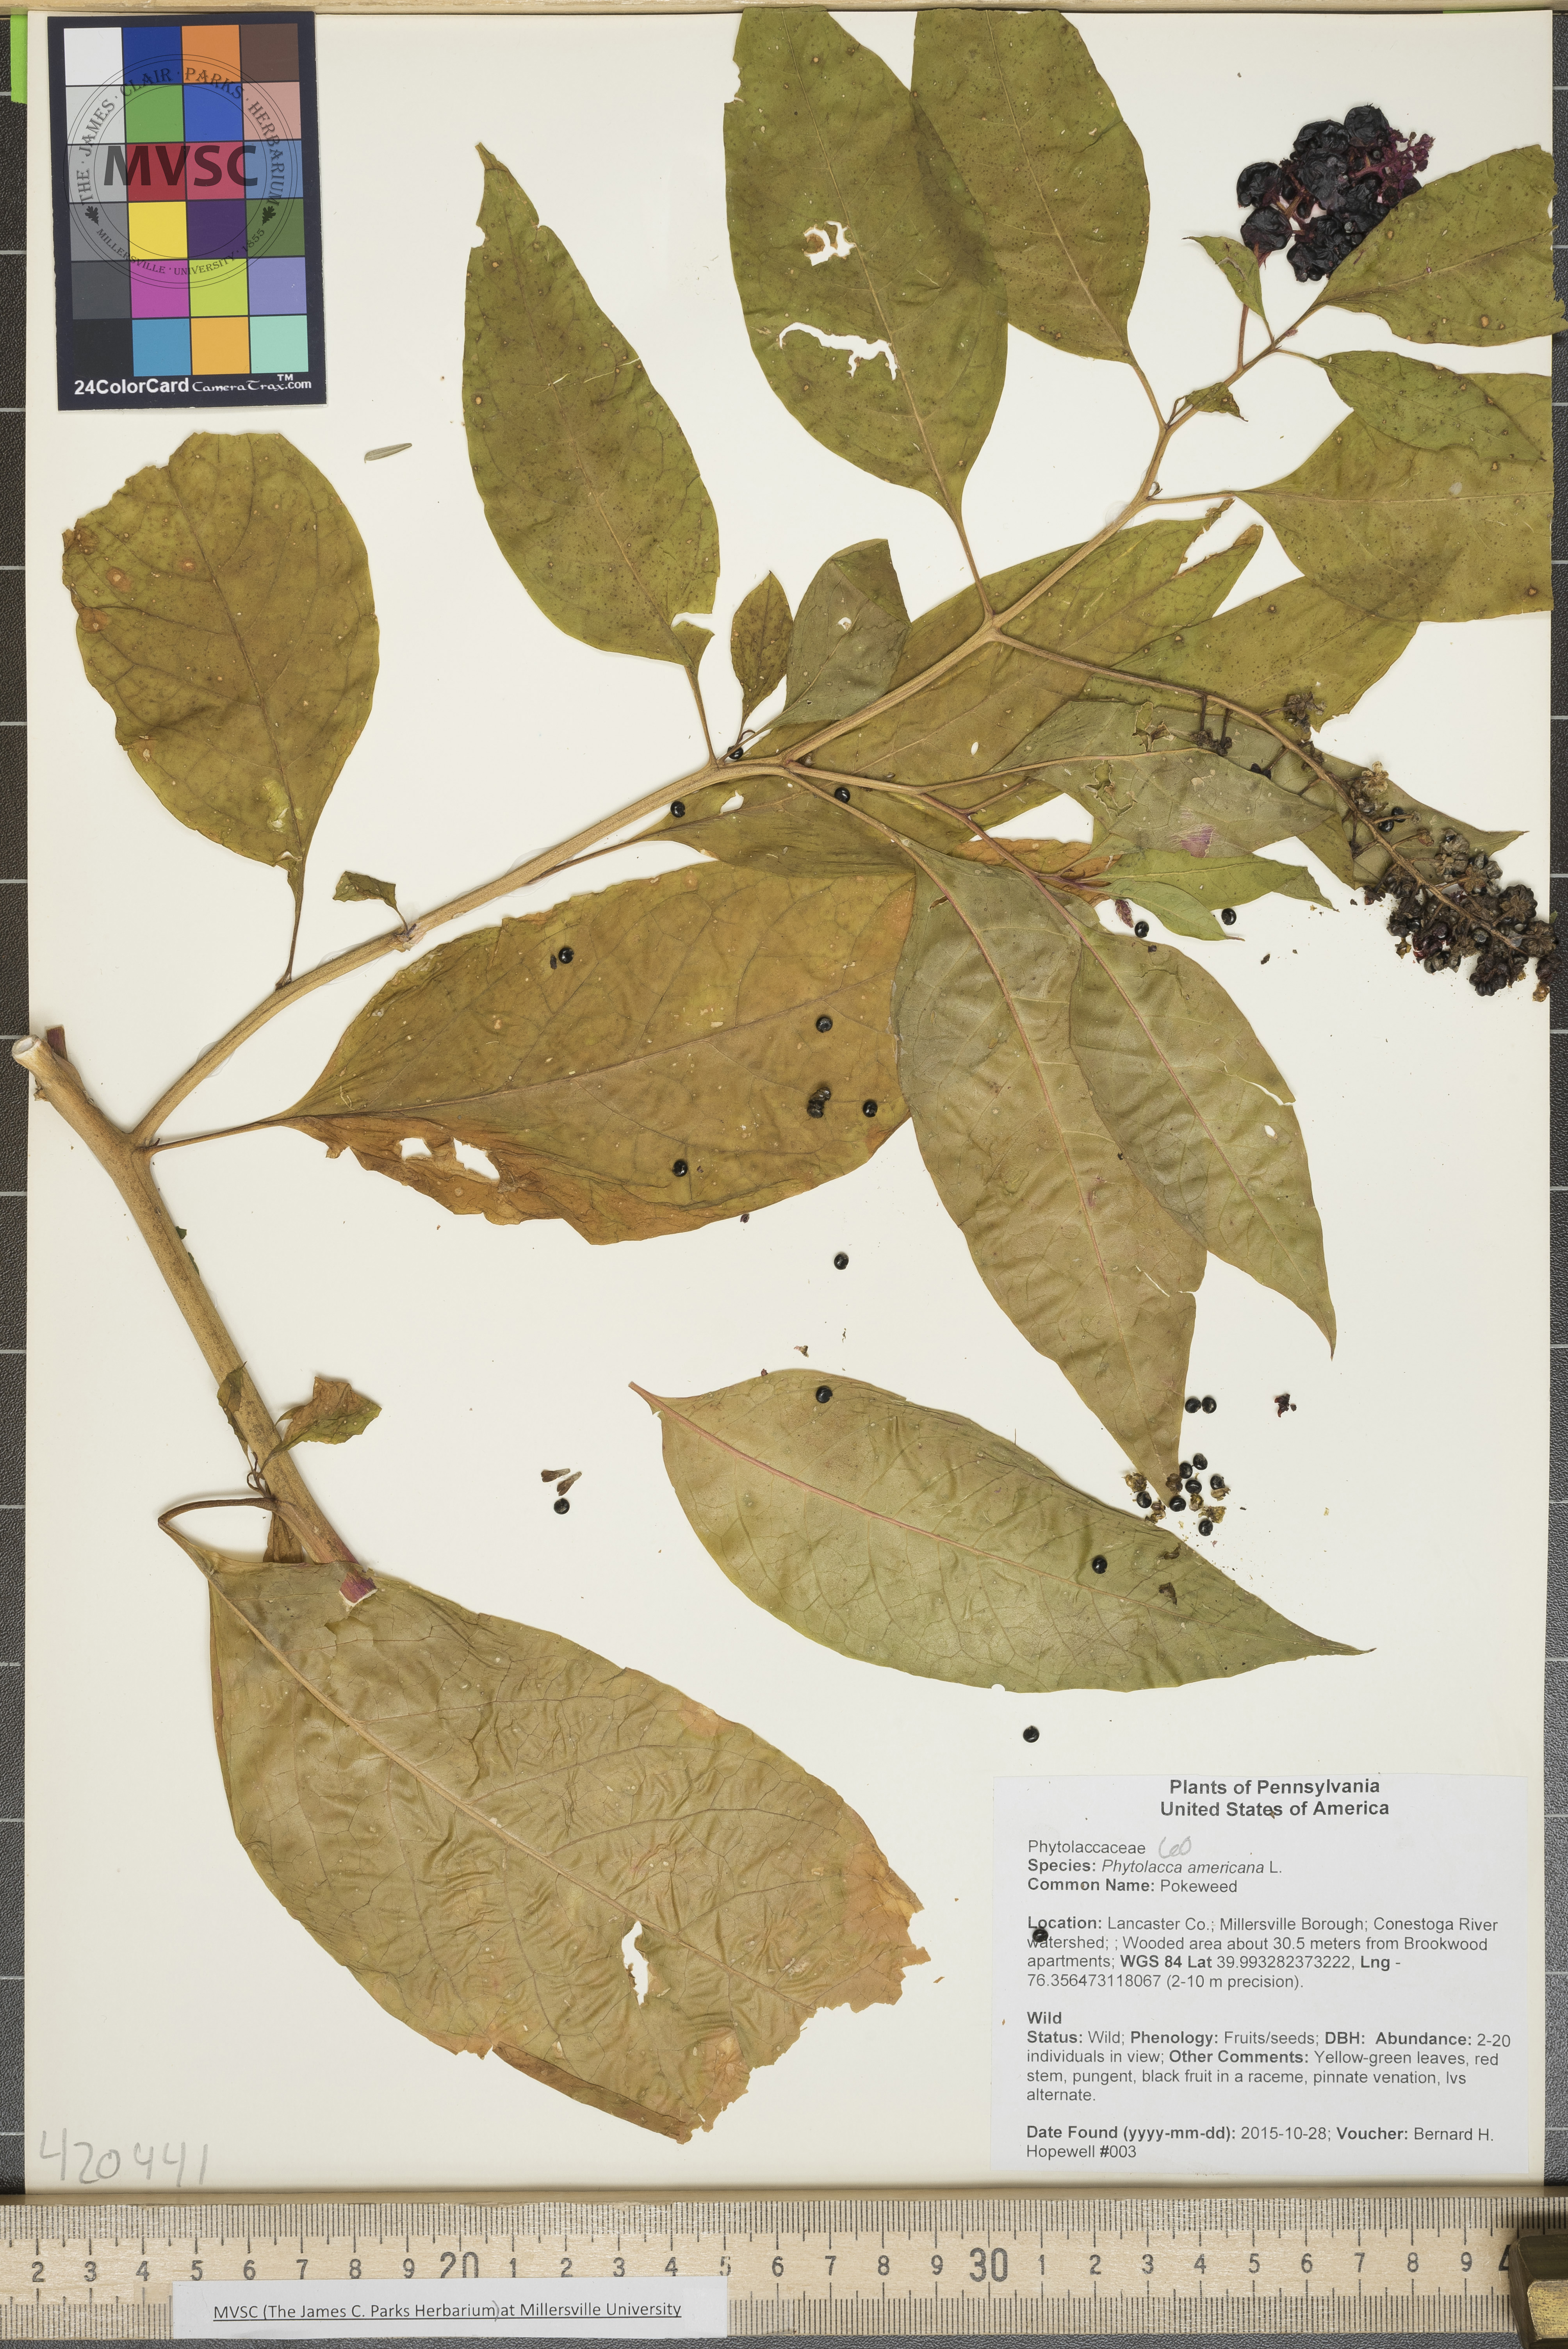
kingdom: Plantae
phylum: Tracheophyta
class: Magnoliopsida
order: Caryophyllales
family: Phytolaccaceae
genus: Phytolacca
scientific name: Phytolacca americana
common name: Pokeweed
